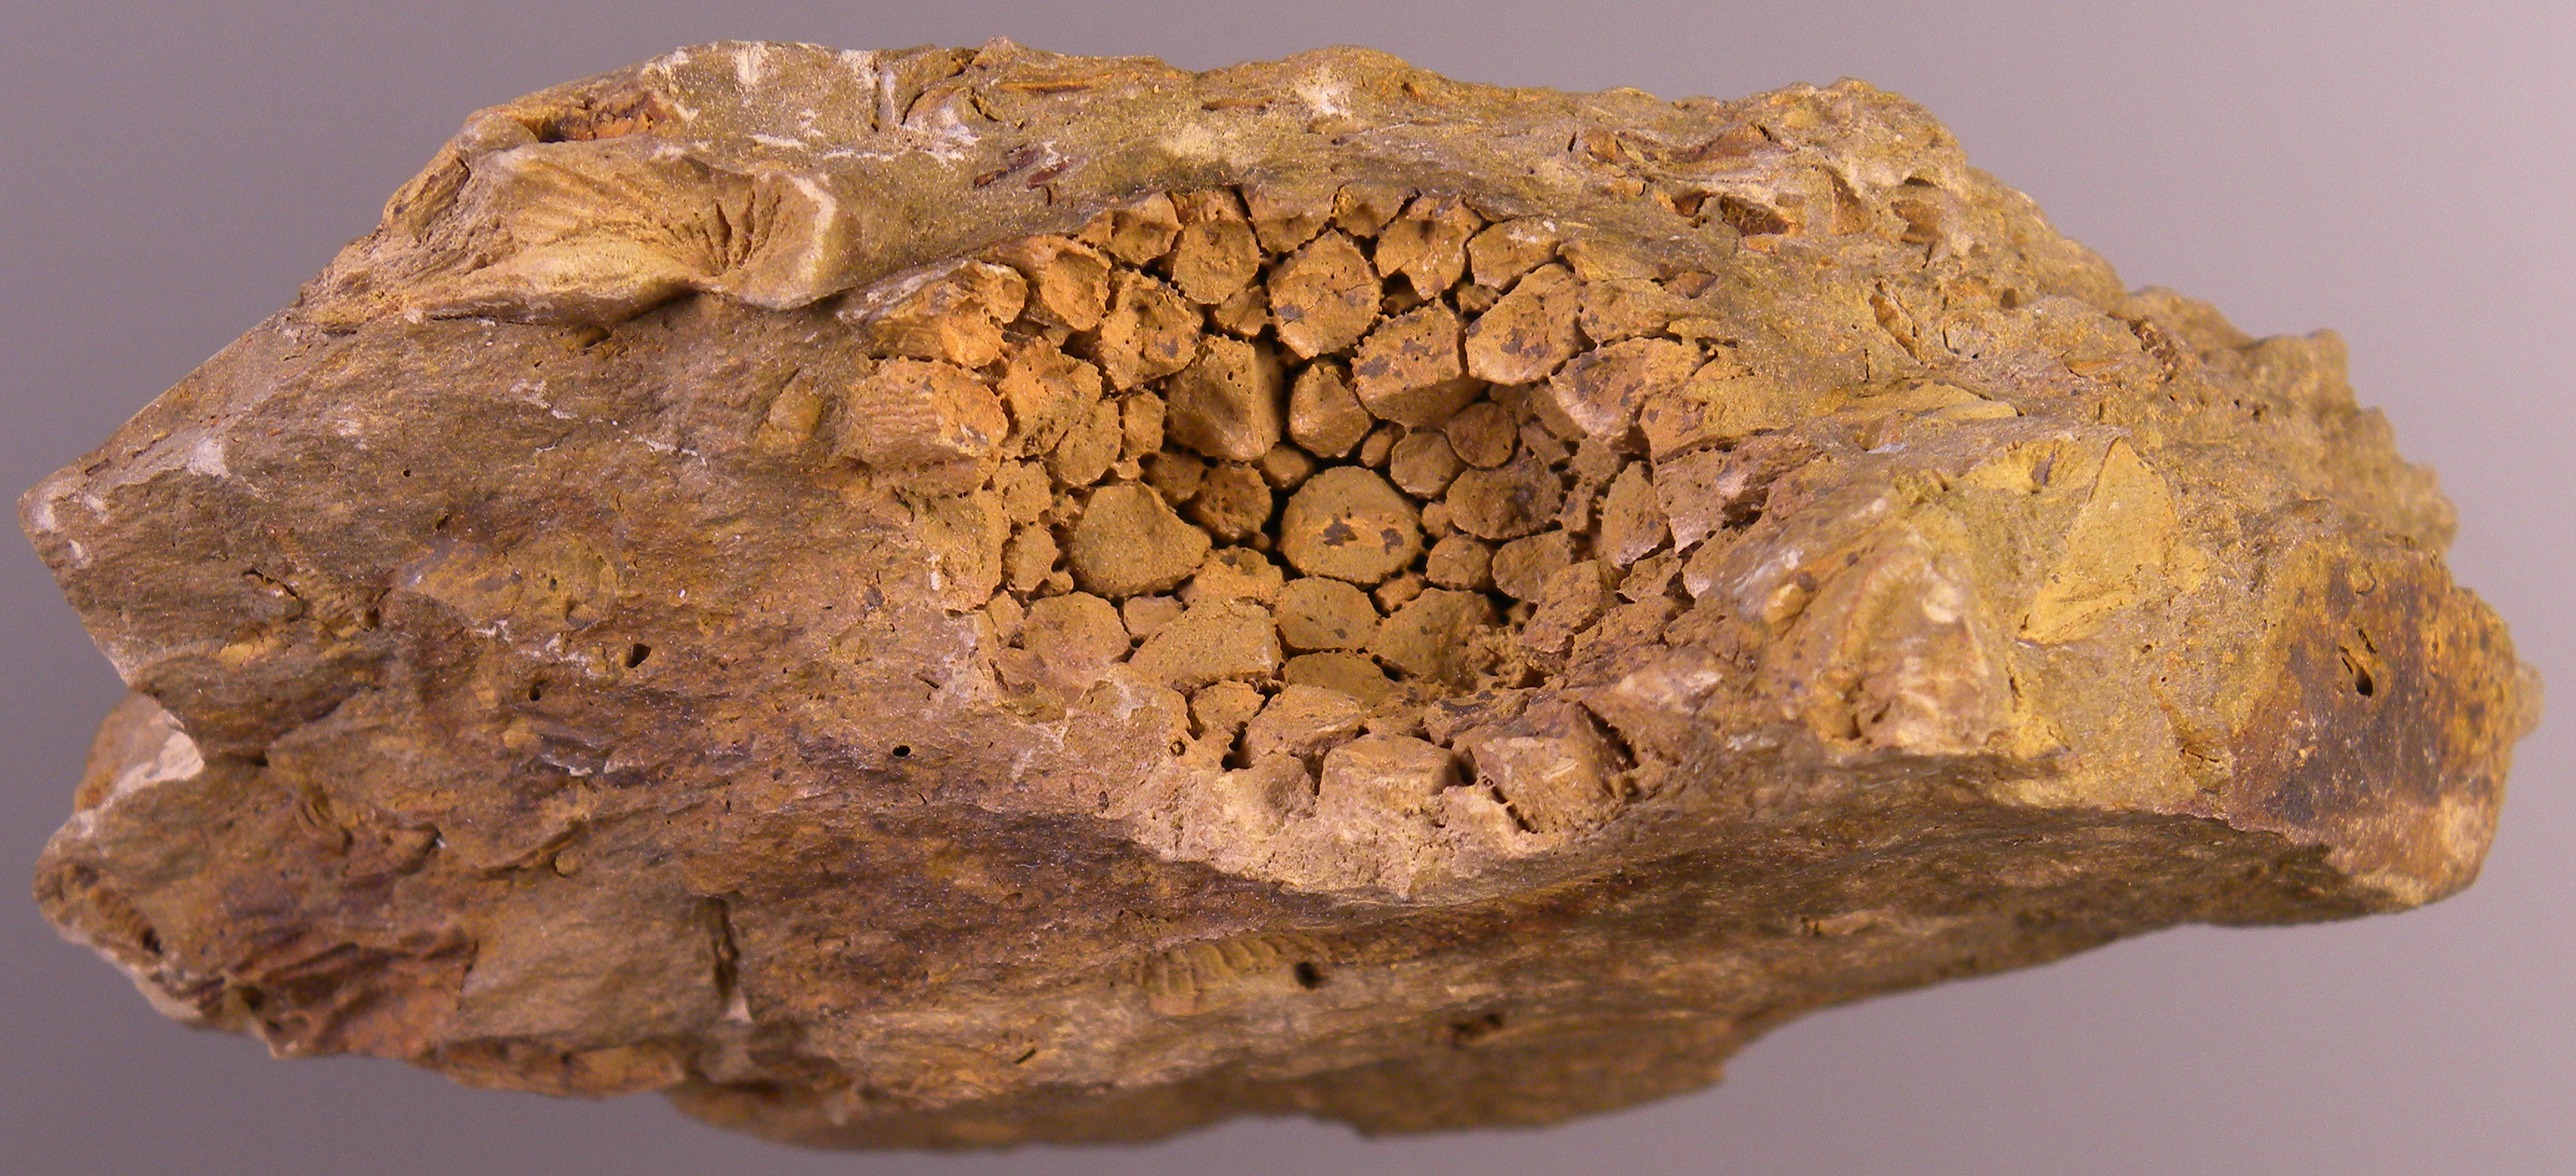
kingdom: Animalia
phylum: Cnidaria
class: Anthozoa
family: Micheliniidae
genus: Pleurodictyum
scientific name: Pleurodictyum
